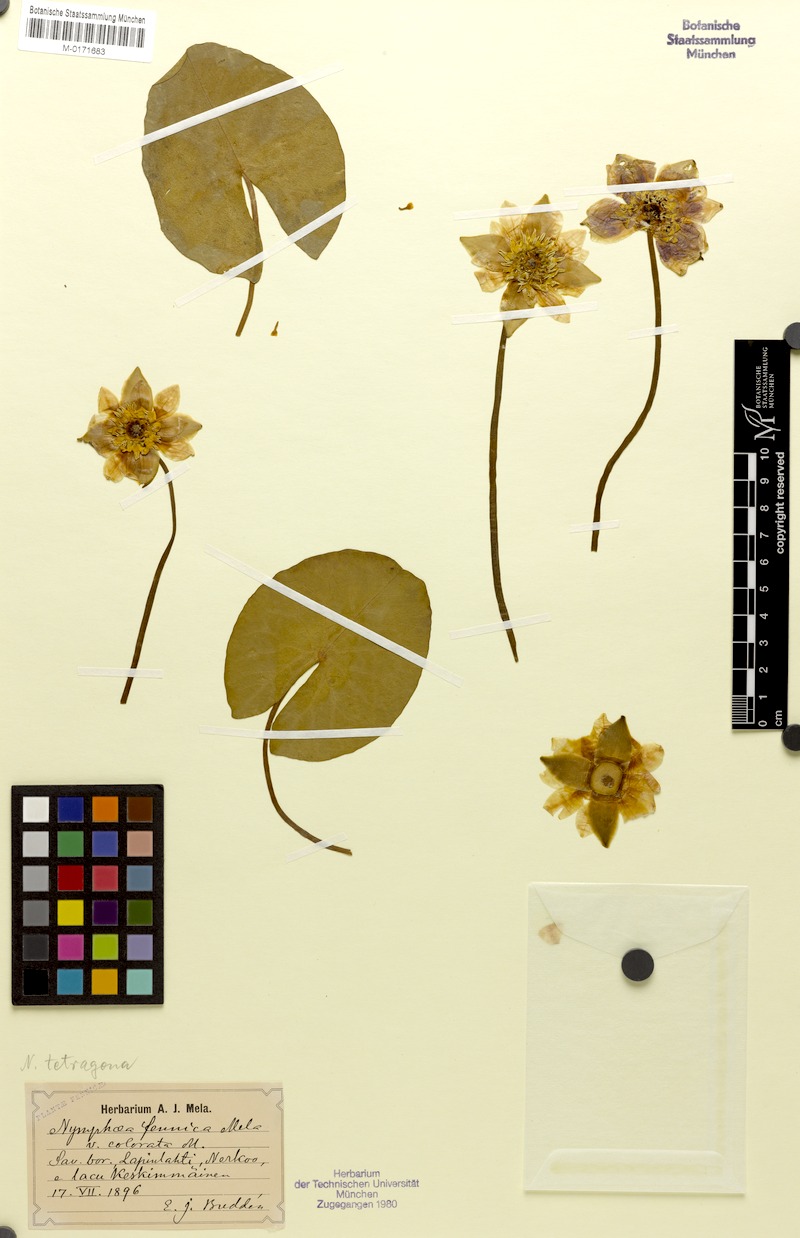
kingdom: Plantae
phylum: Tracheophyta
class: Magnoliopsida
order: Nymphaeales
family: Nymphaeaceae
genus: Nymphaea
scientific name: Nymphaea tetragona
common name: Pygmy water-lily
